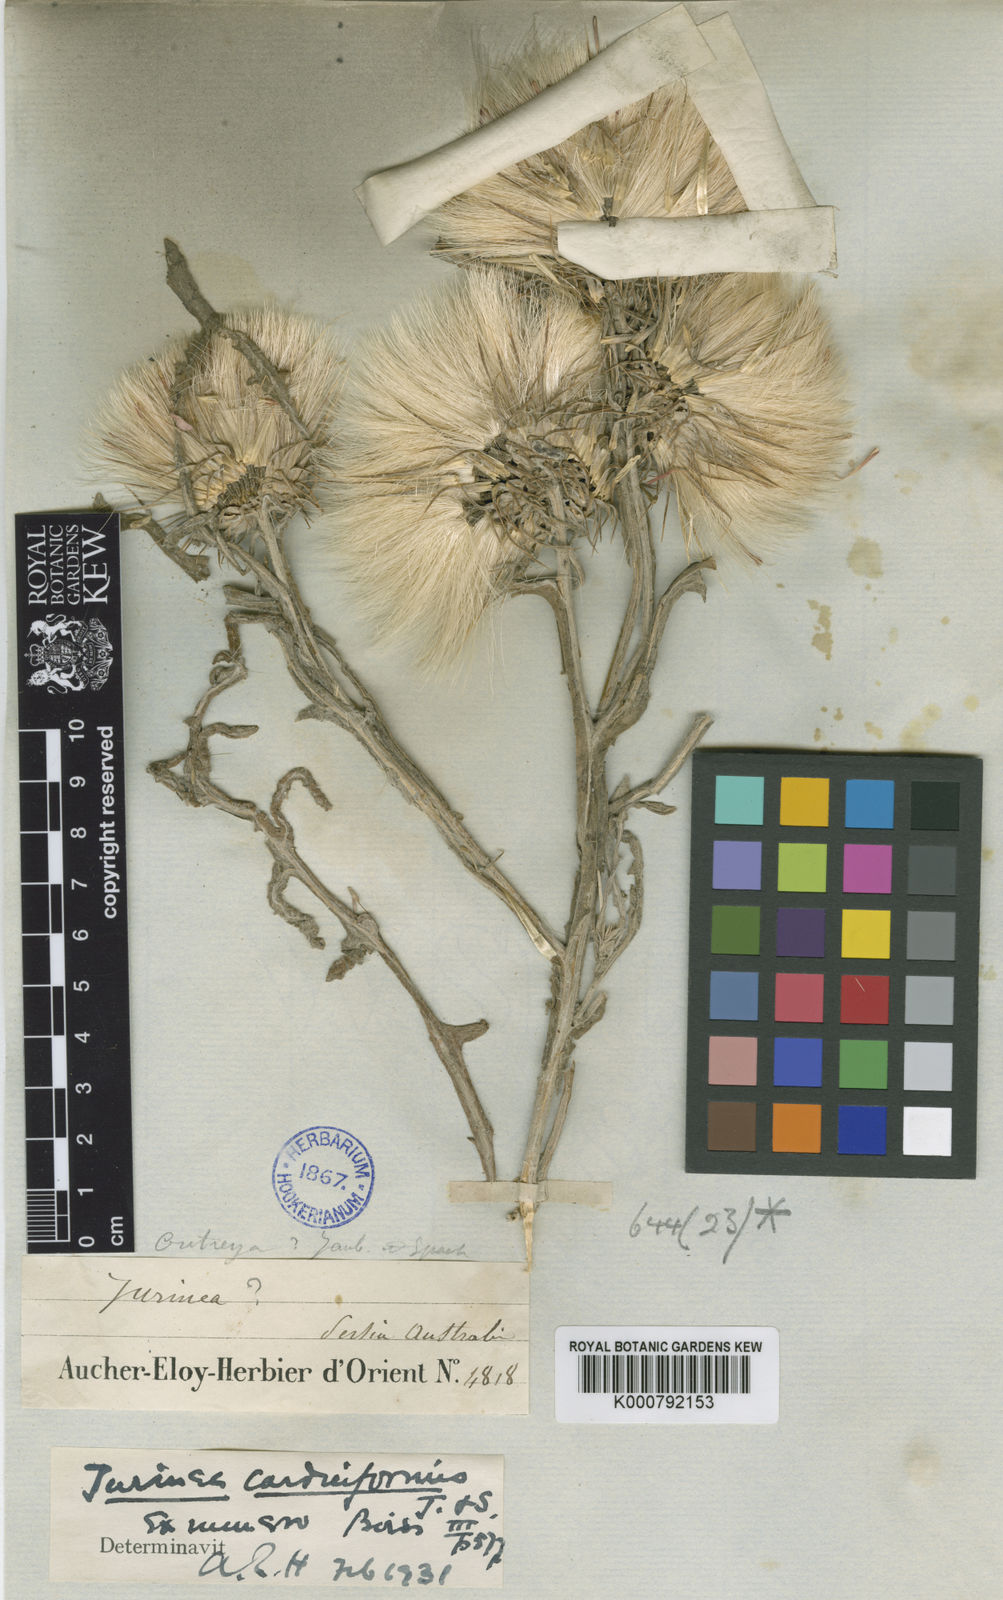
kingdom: Plantae
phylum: Tracheophyta
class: Magnoliopsida
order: Asterales
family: Asteraceae
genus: Jurinea
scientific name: Jurinea
